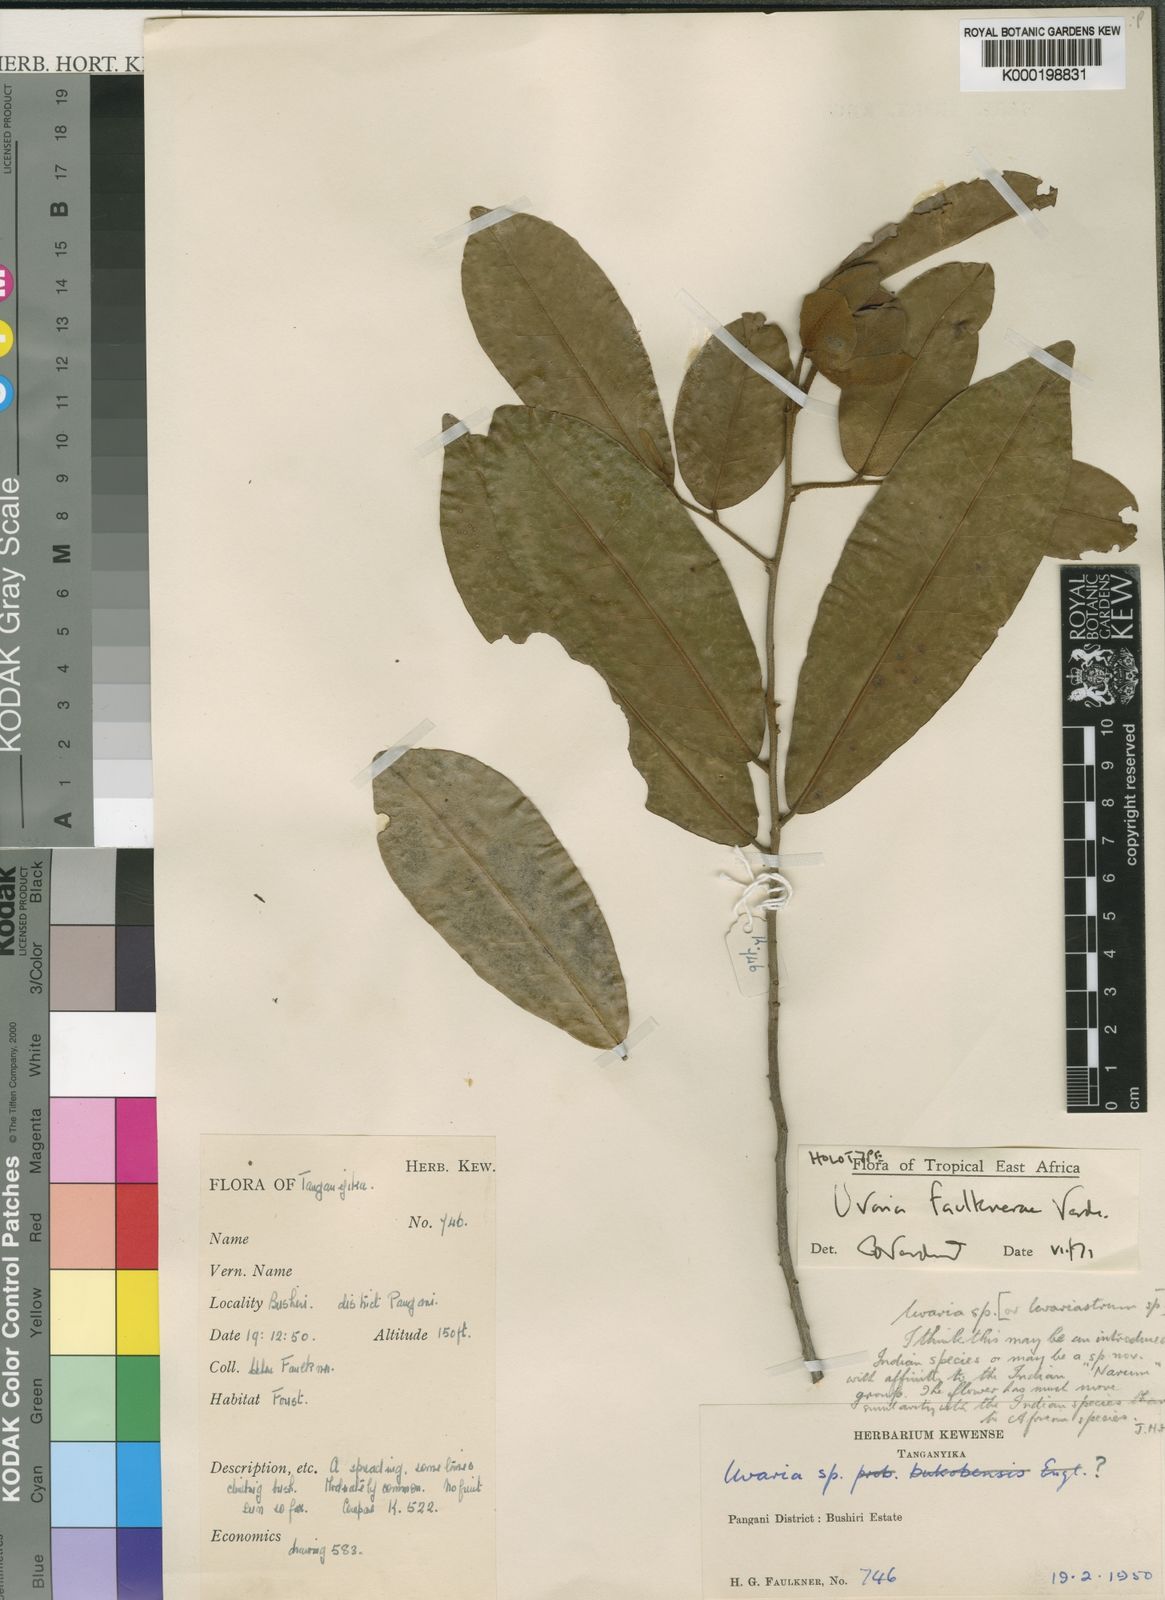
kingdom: Plantae
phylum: Tracheophyta
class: Magnoliopsida
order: Magnoliales
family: Annonaceae
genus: Uvaria
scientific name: Uvaria faulknerae
